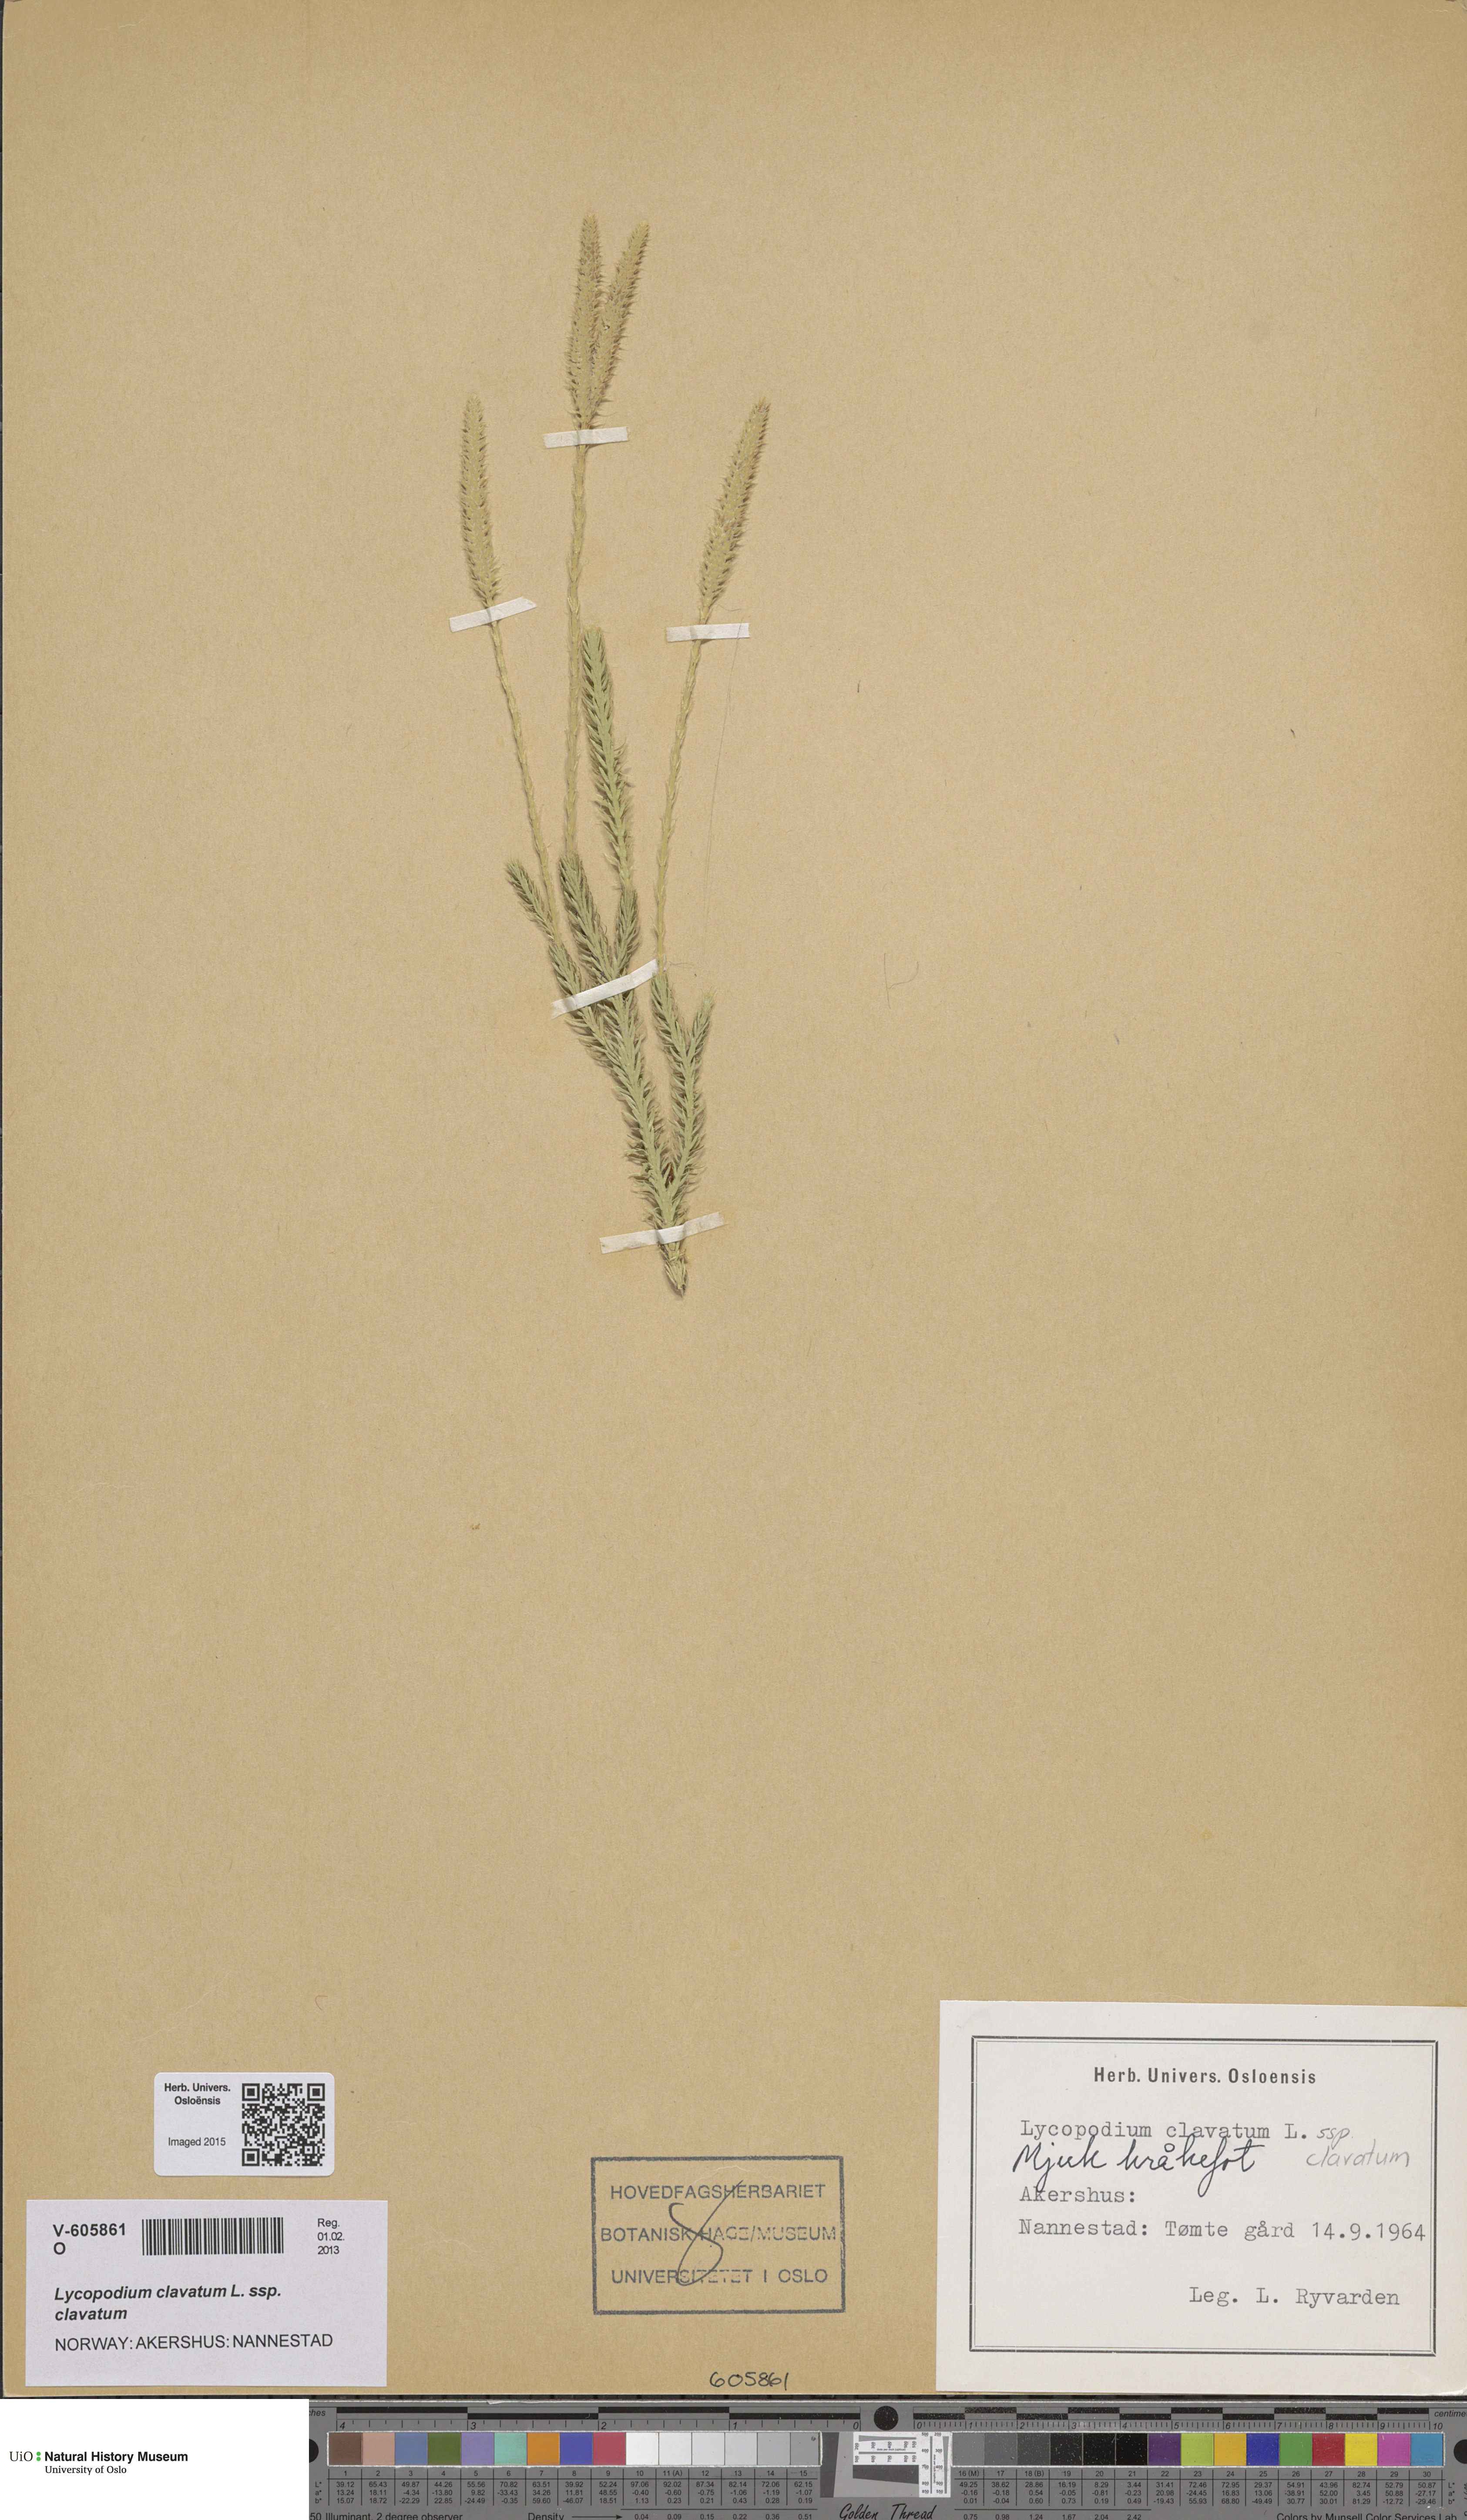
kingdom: Plantae
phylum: Tracheophyta
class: Lycopodiopsida
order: Lycopodiales
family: Lycopodiaceae
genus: Lycopodium
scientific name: Lycopodium clavatum
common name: Stag's-horn clubmoss
